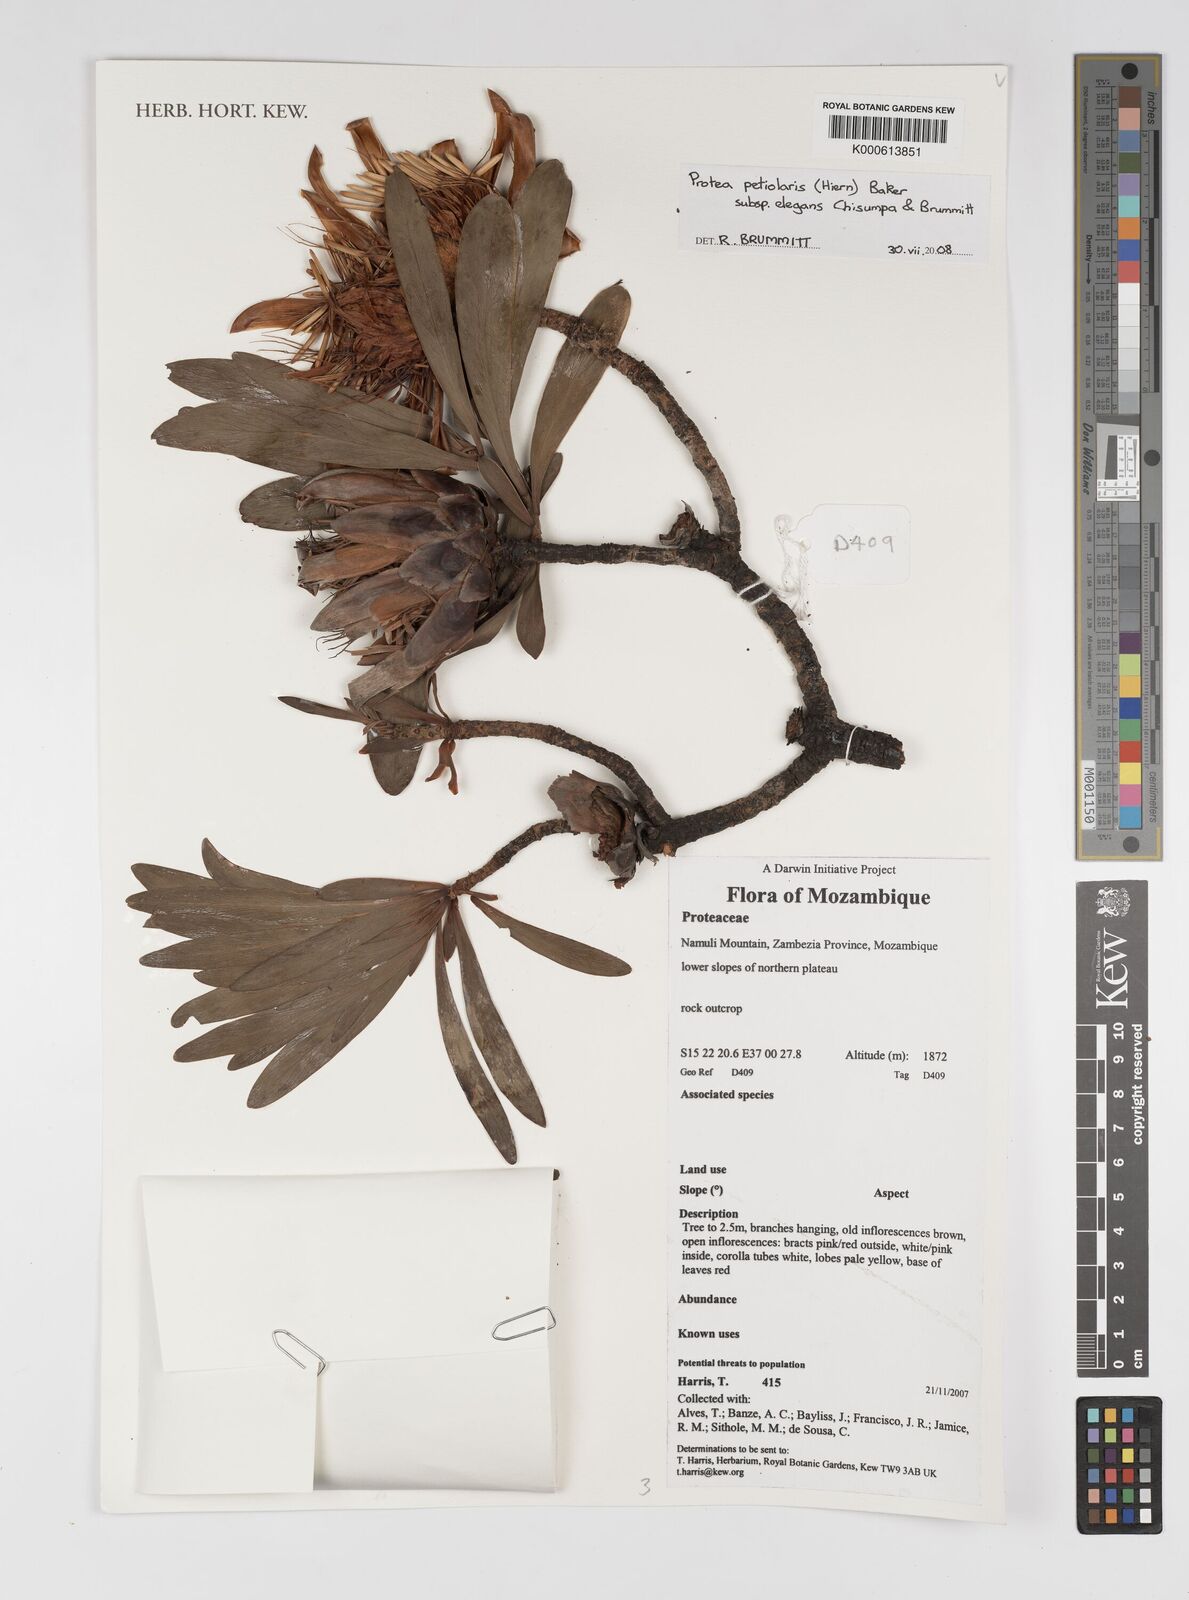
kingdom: Plantae
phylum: Tracheophyta
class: Magnoliopsida
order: Proteales
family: Proteaceae
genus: Protea
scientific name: Protea petiolaris
